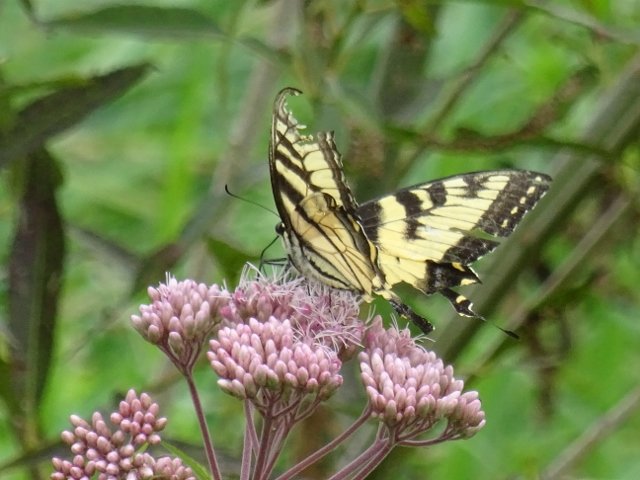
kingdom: Animalia
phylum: Arthropoda
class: Insecta
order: Lepidoptera
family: Papilionidae
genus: Pterourus
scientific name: Pterourus glaucus
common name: Eastern Tiger Swallowtail
